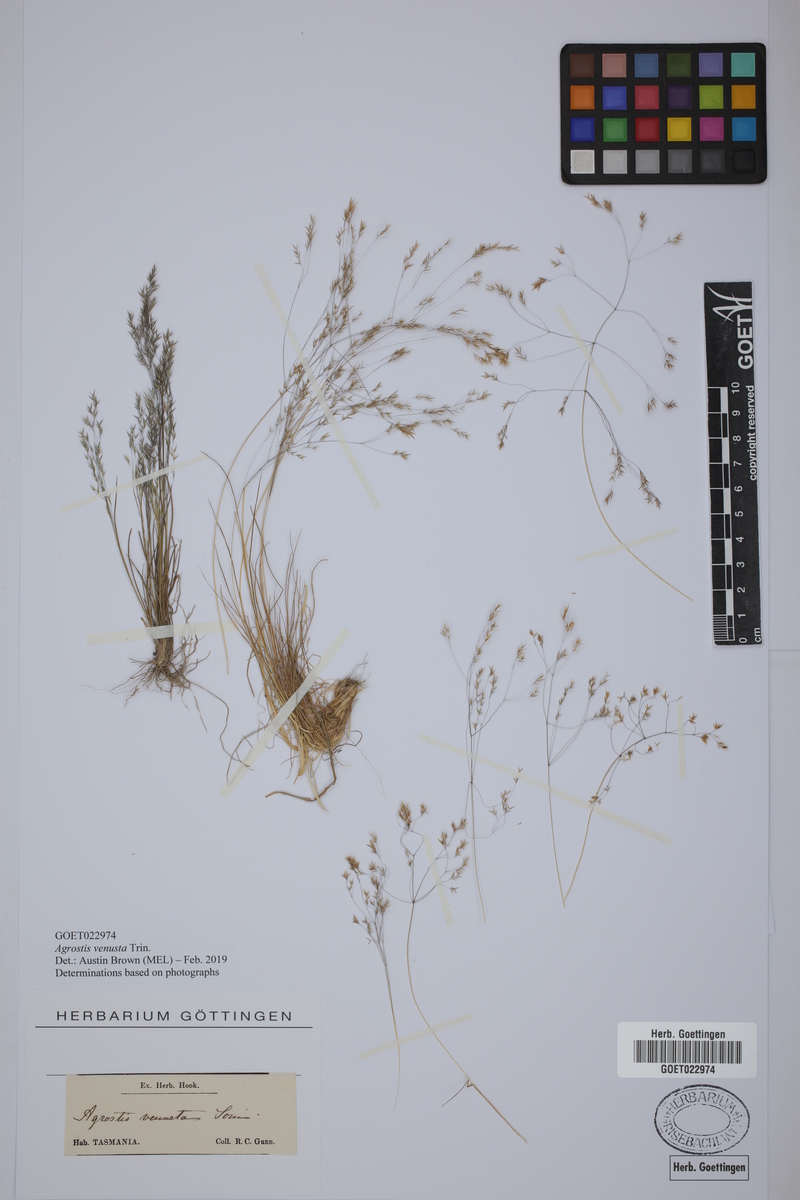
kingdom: Plantae
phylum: Tracheophyta
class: Liliopsida
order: Poales
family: Poaceae
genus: Agrostis
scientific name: Agrostis venusta
